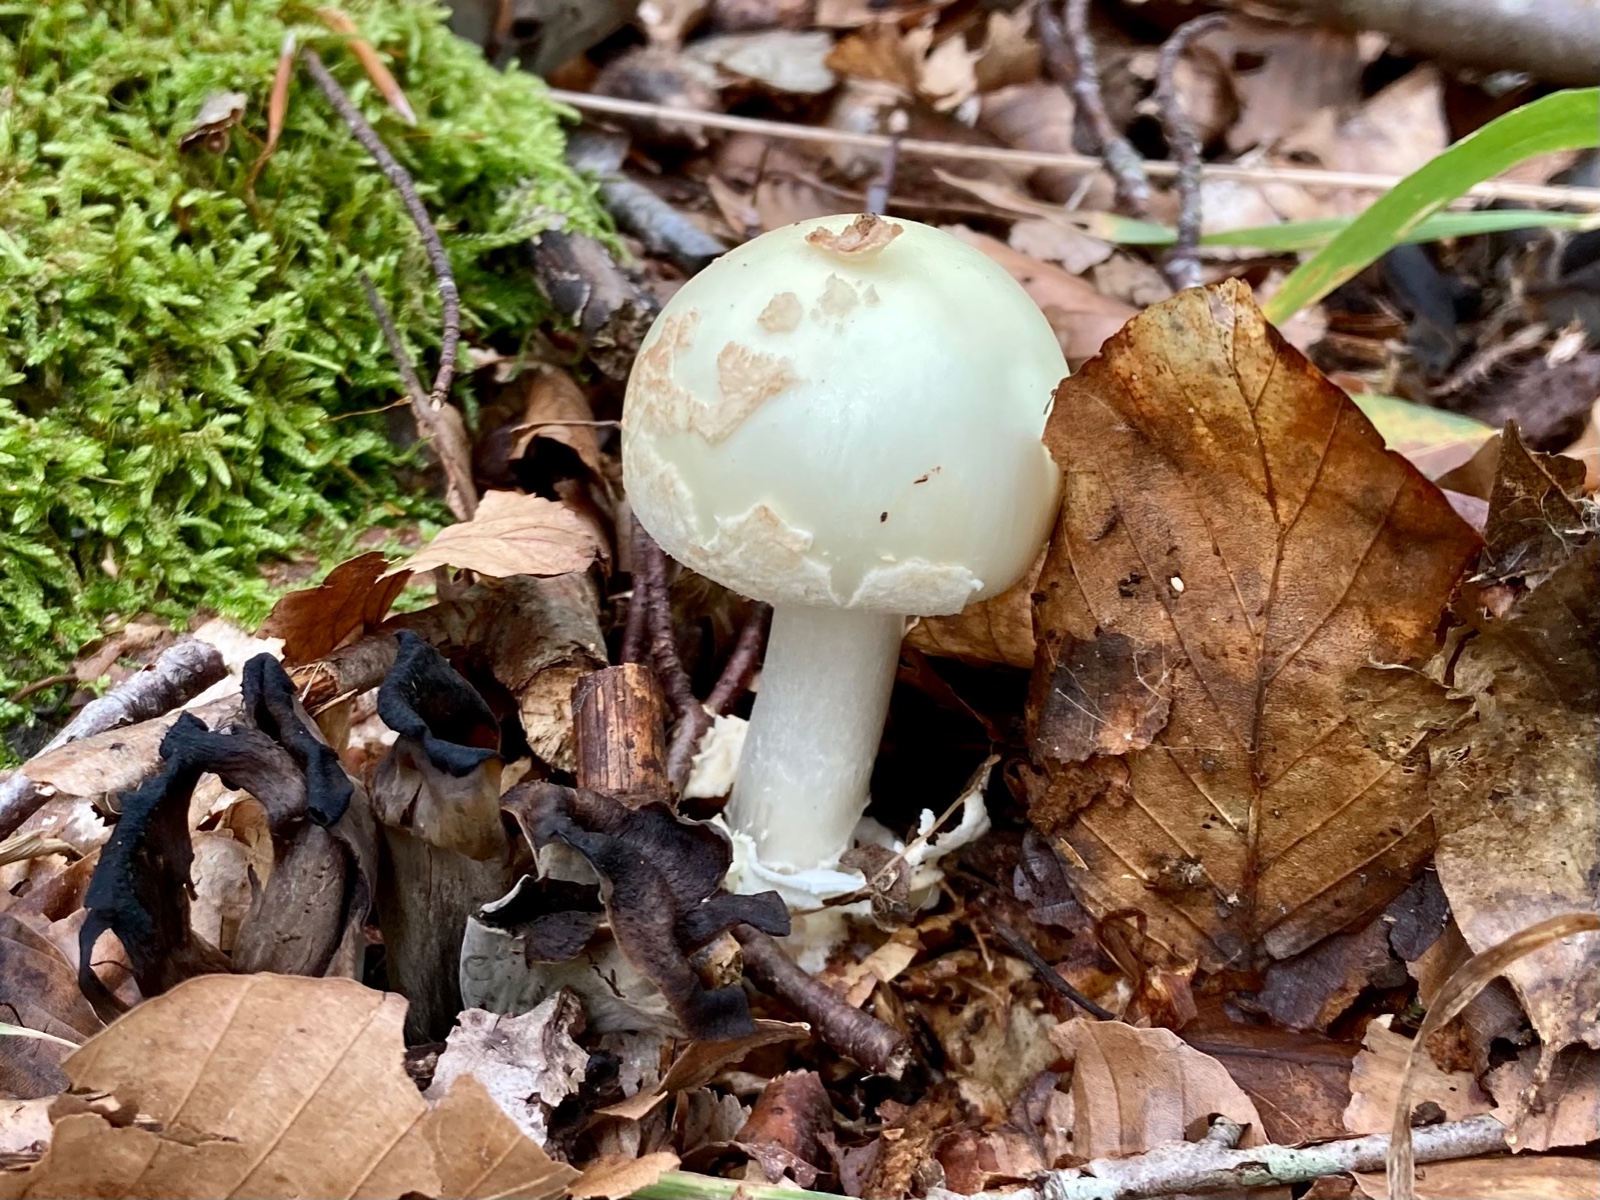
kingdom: Fungi
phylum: Basidiomycota
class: Agaricomycetes
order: Agaricales
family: Amanitaceae
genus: Amanita
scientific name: Amanita citrina
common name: kugleknoldet fluesvamp
